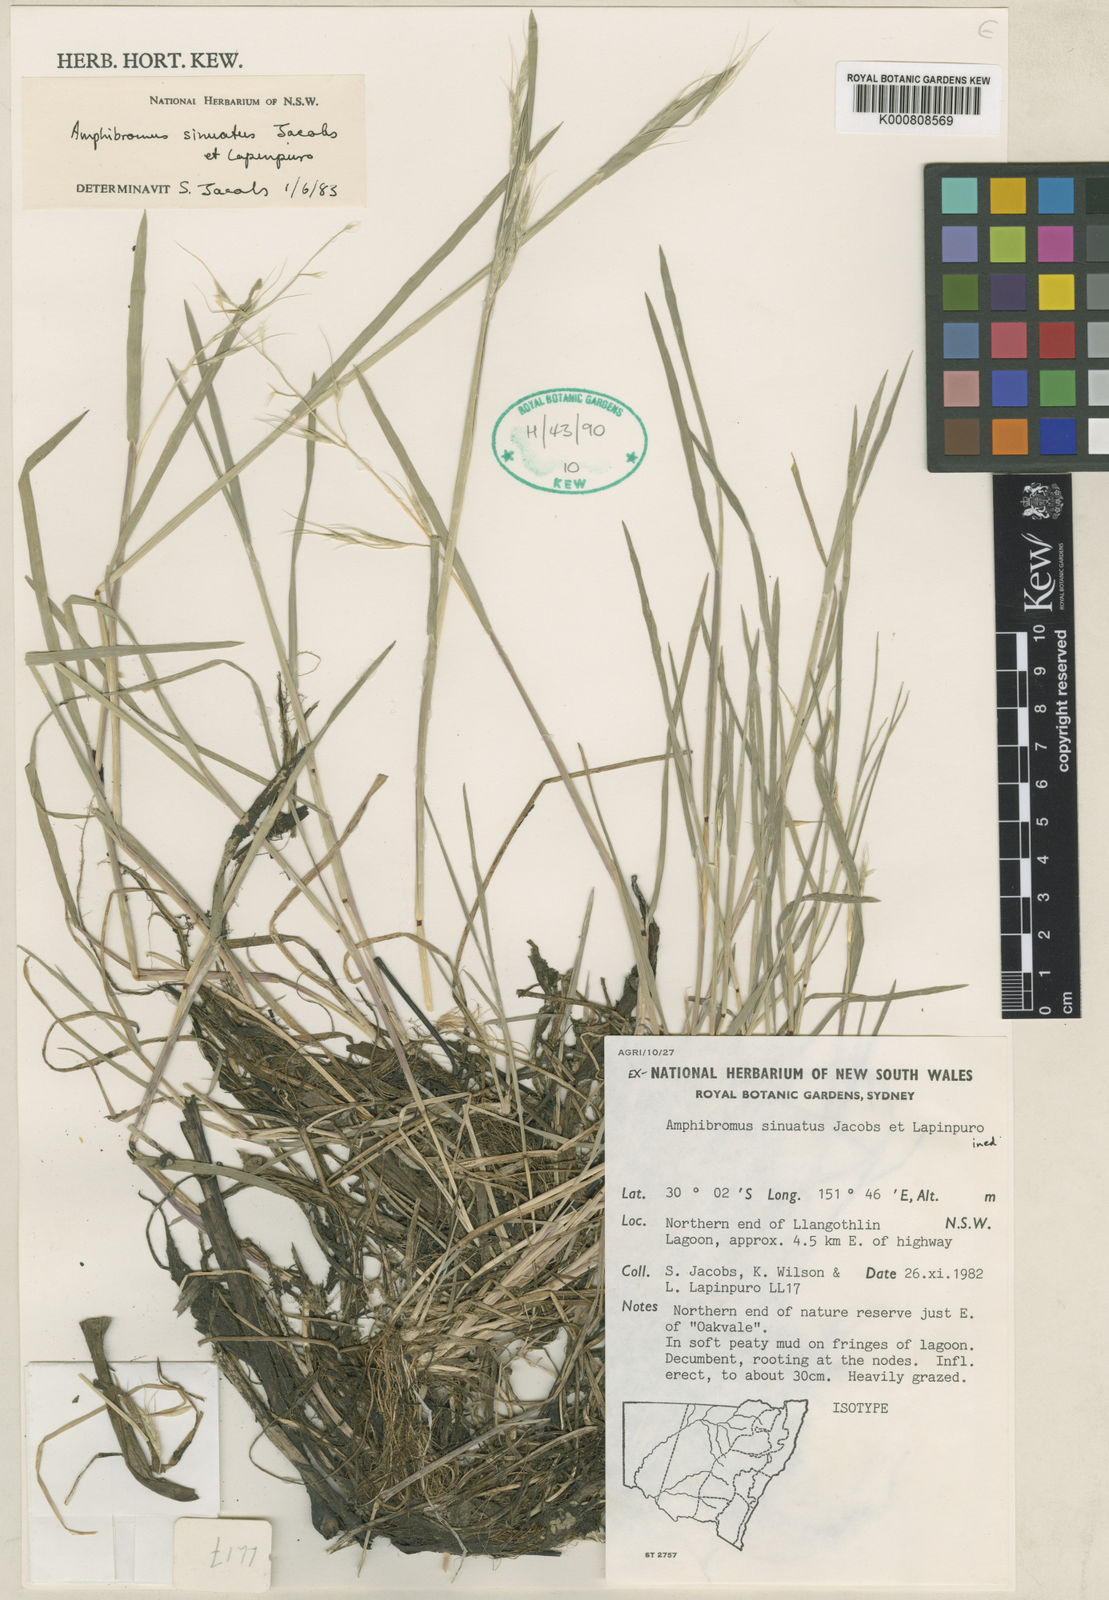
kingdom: Plantae
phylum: Tracheophyta
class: Liliopsida
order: Poales
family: Poaceae
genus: Helictotrichon
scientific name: Helictotrichon
